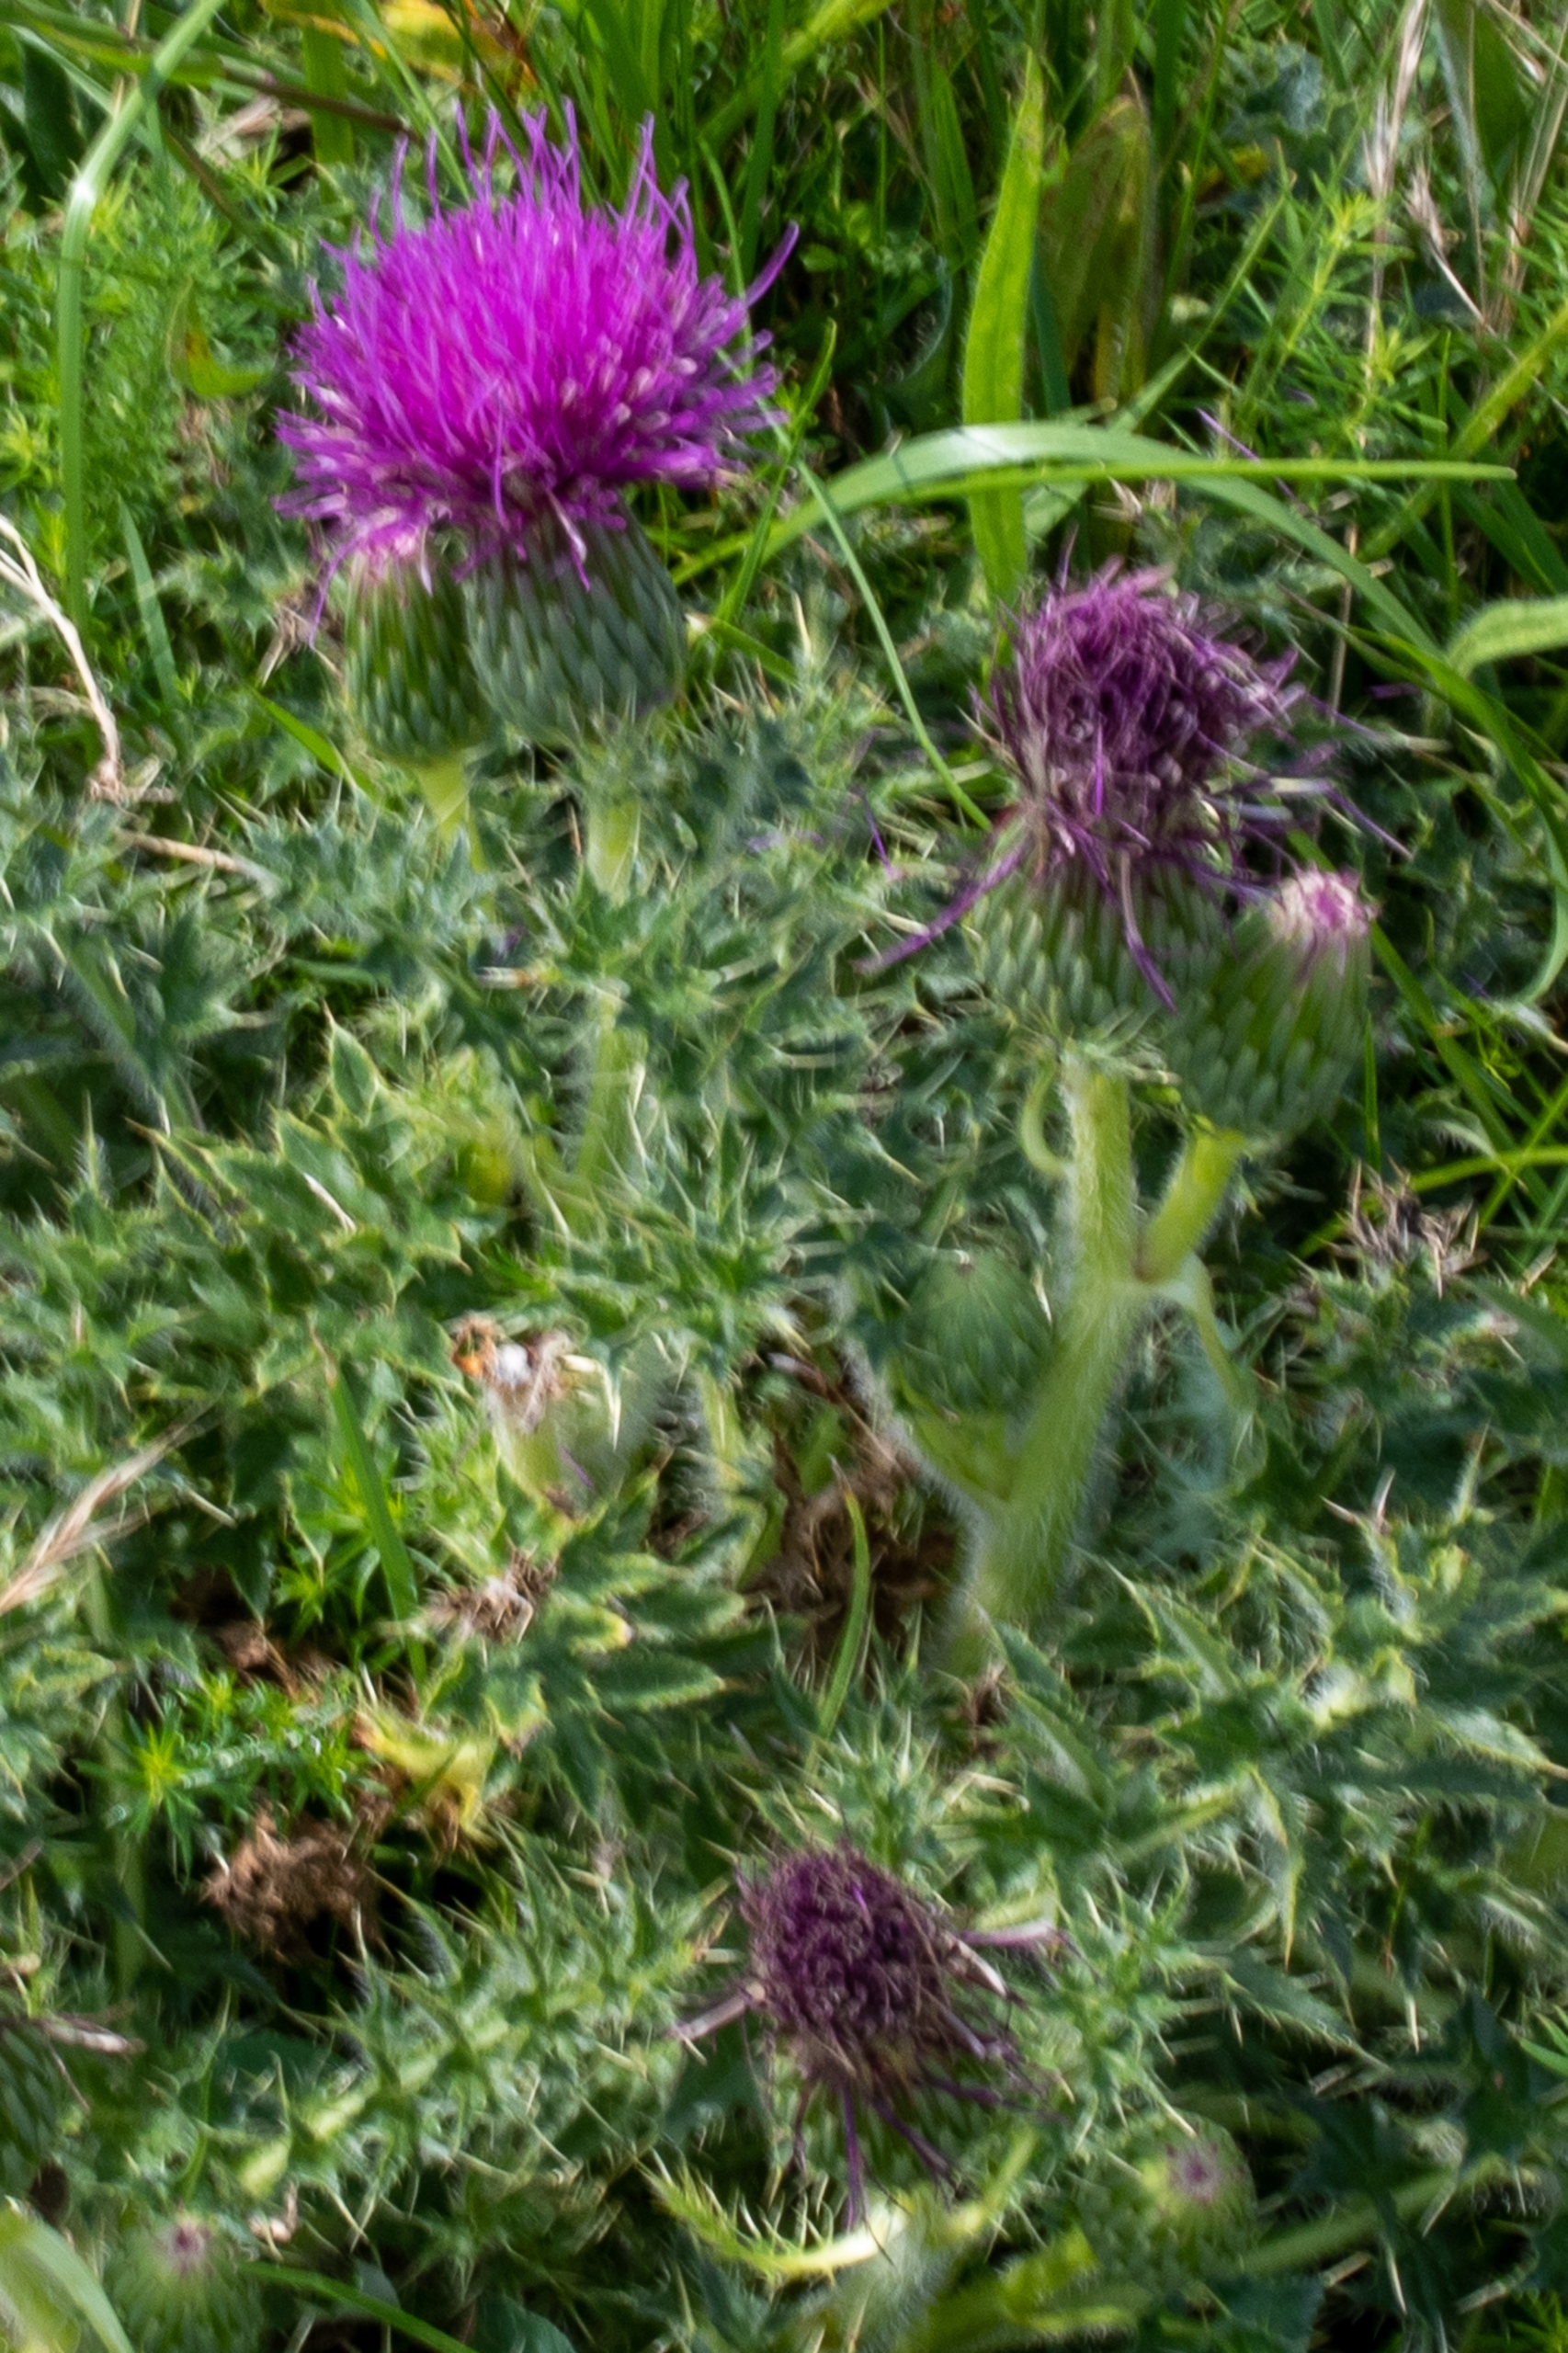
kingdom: Plantae
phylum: Tracheophyta
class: Magnoliopsida
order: Asterales
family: Asteraceae
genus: Cirsium
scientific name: Cirsium acaule
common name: Lav tidsel
